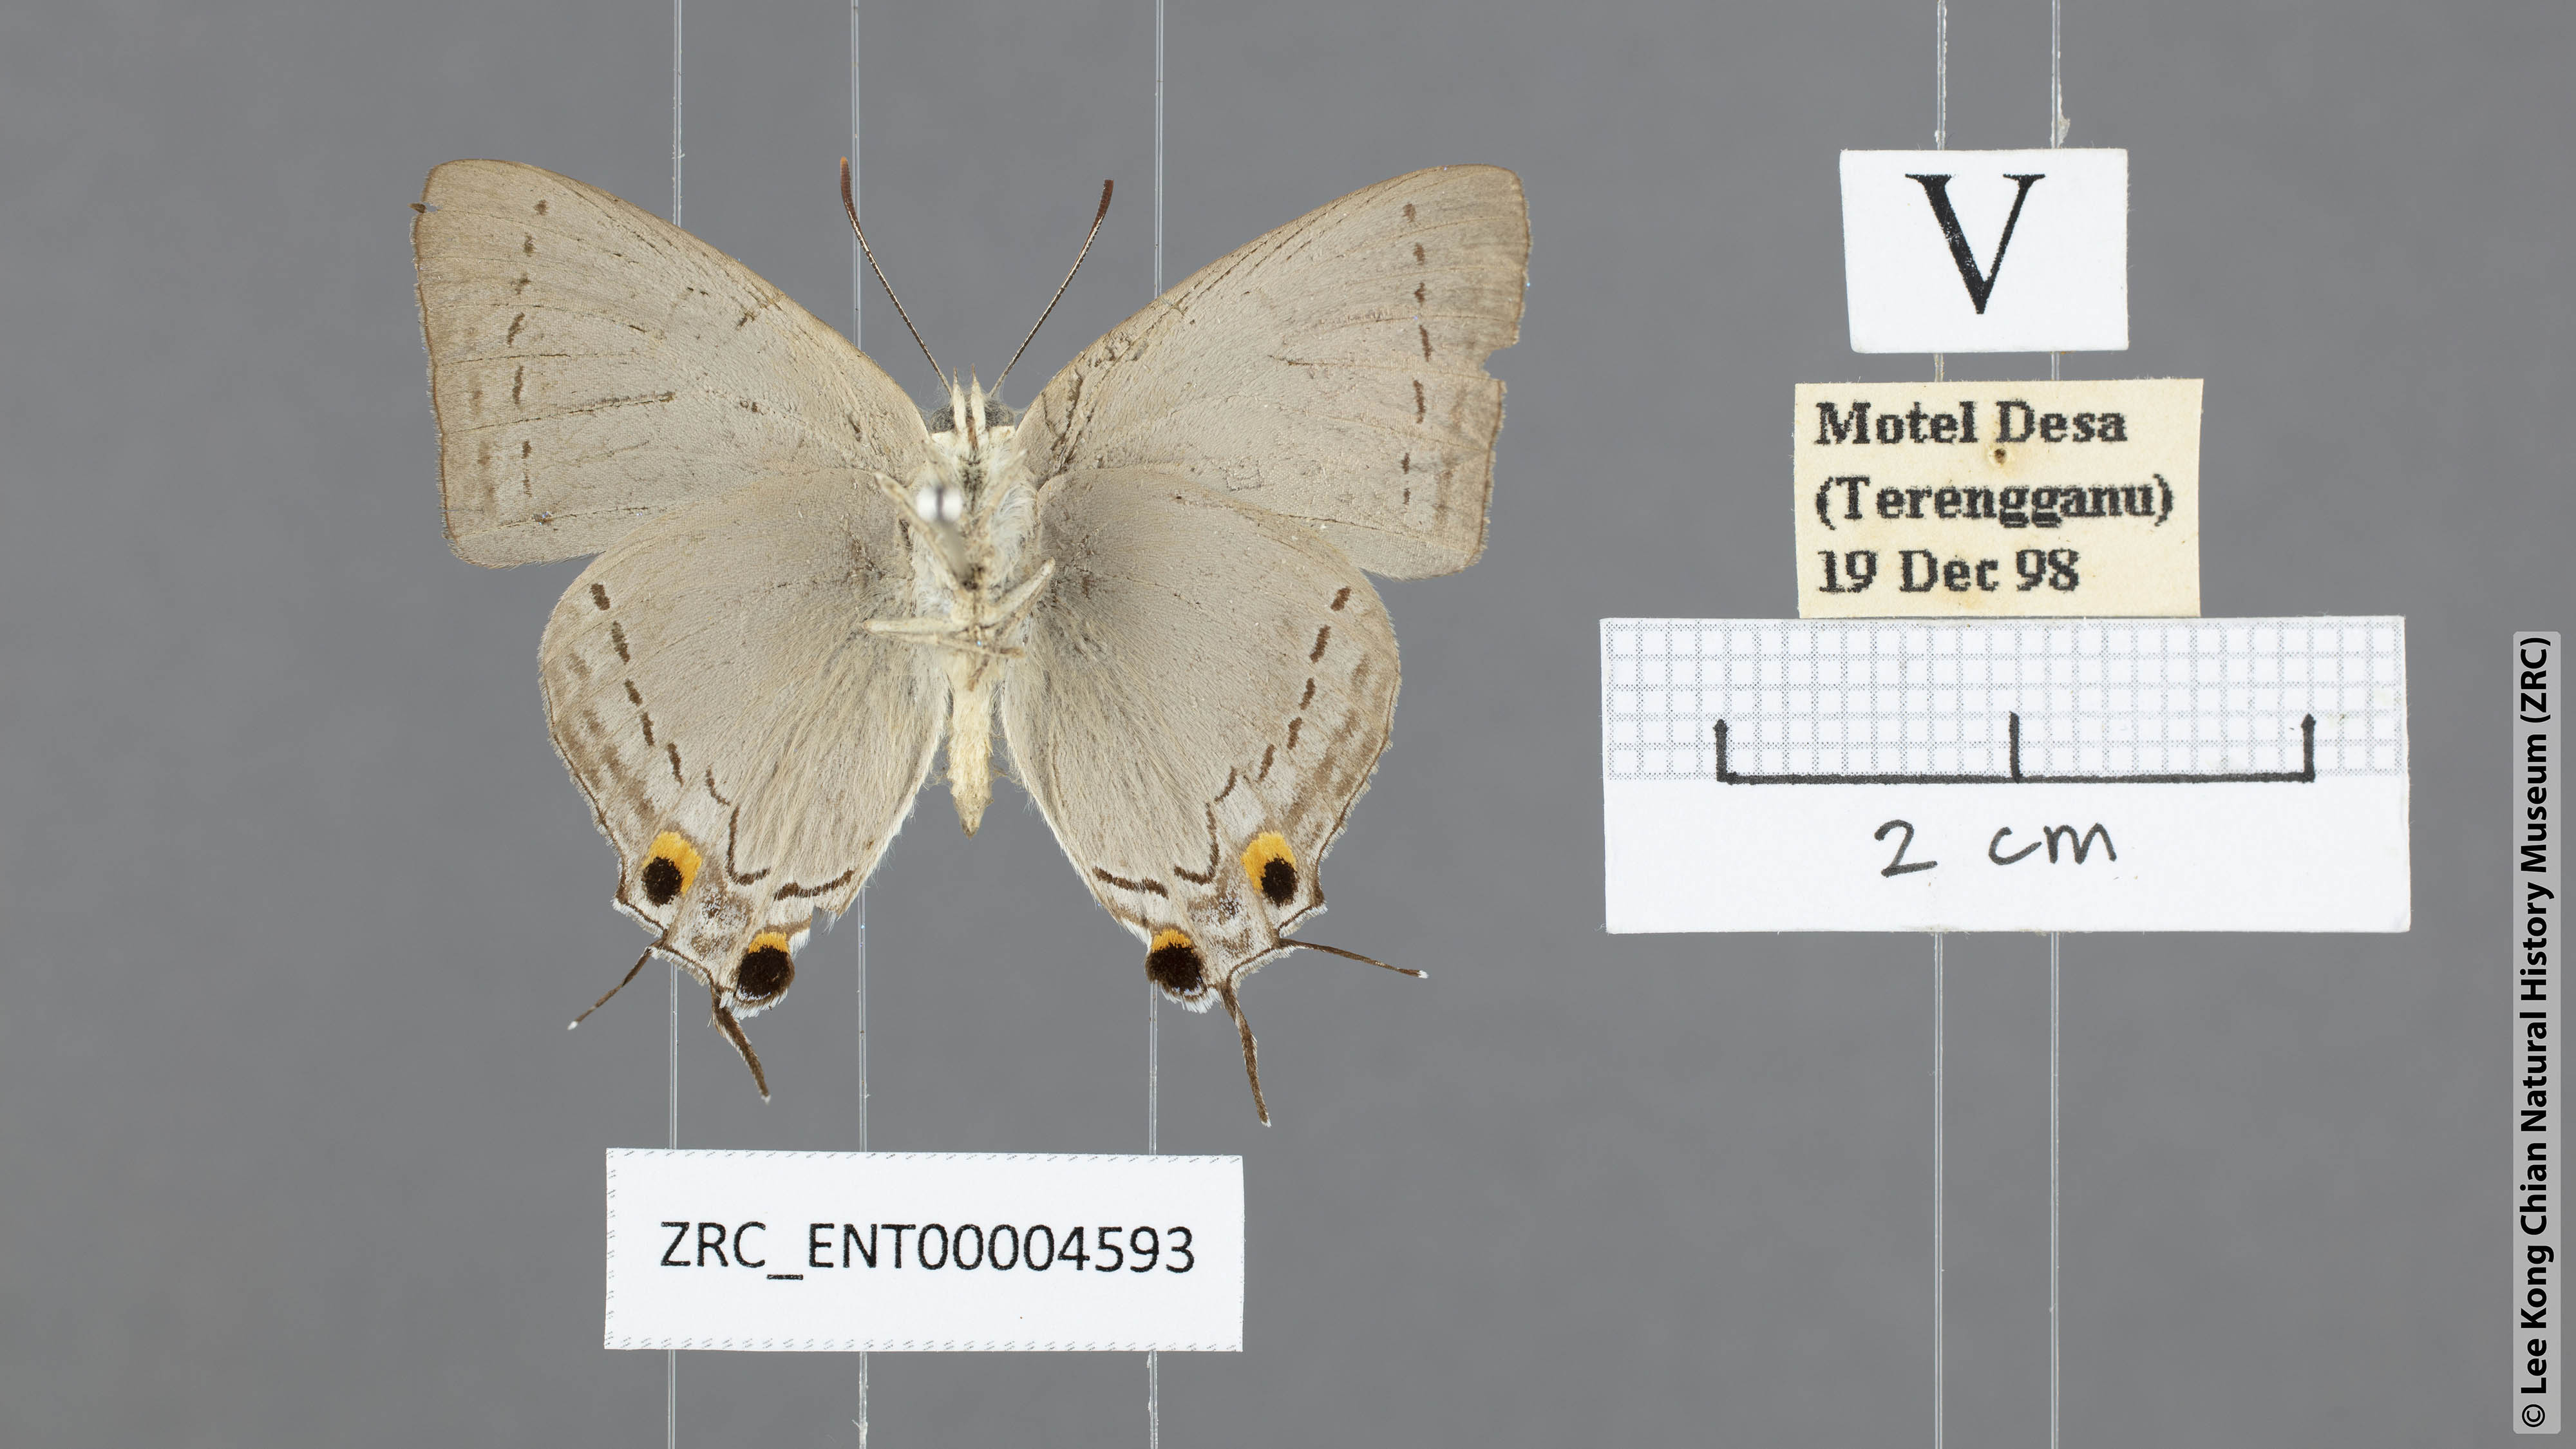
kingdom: Animalia
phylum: Arthropoda
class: Insecta
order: Lepidoptera
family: Lycaenidae
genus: Tajuria
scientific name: Tajuria cippus
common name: Peacock royal
